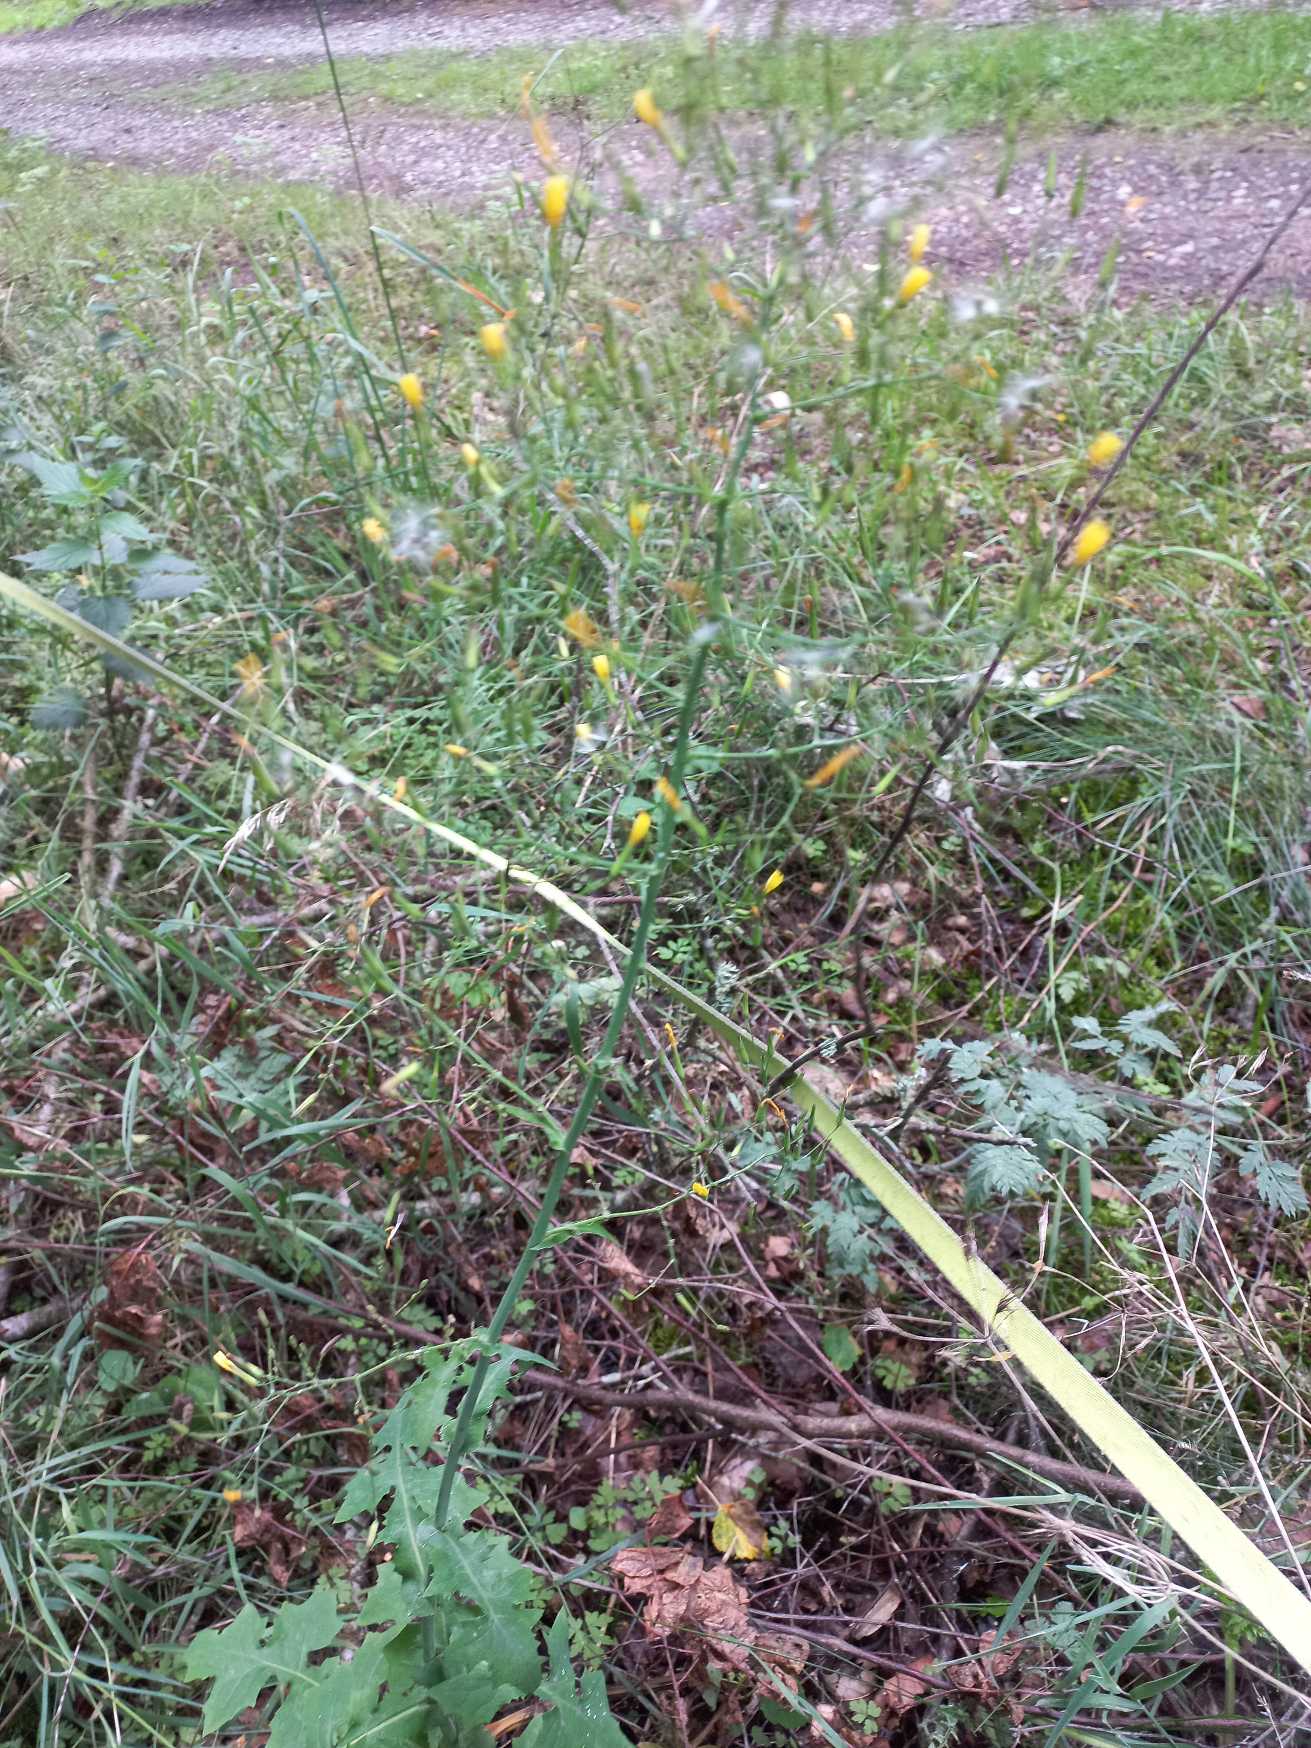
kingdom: Plantae
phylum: Tracheophyta
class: Magnoliopsida
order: Asterales
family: Asteraceae
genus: Mycelis
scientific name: Mycelis muralis
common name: Skov-salat
